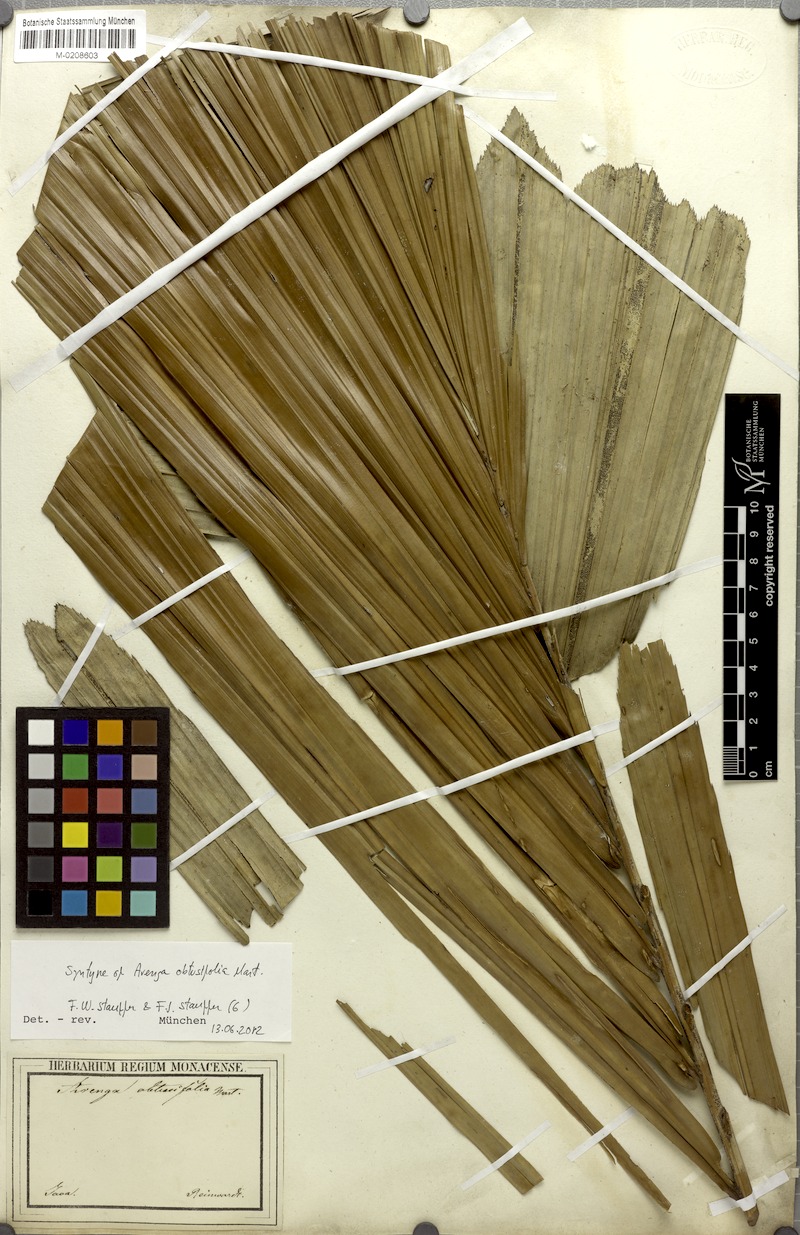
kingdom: Plantae
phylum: Tracheophyta
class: Liliopsida
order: Arecales
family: Arecaceae
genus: Arenga
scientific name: Arenga obtusifolia
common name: Lang kap
